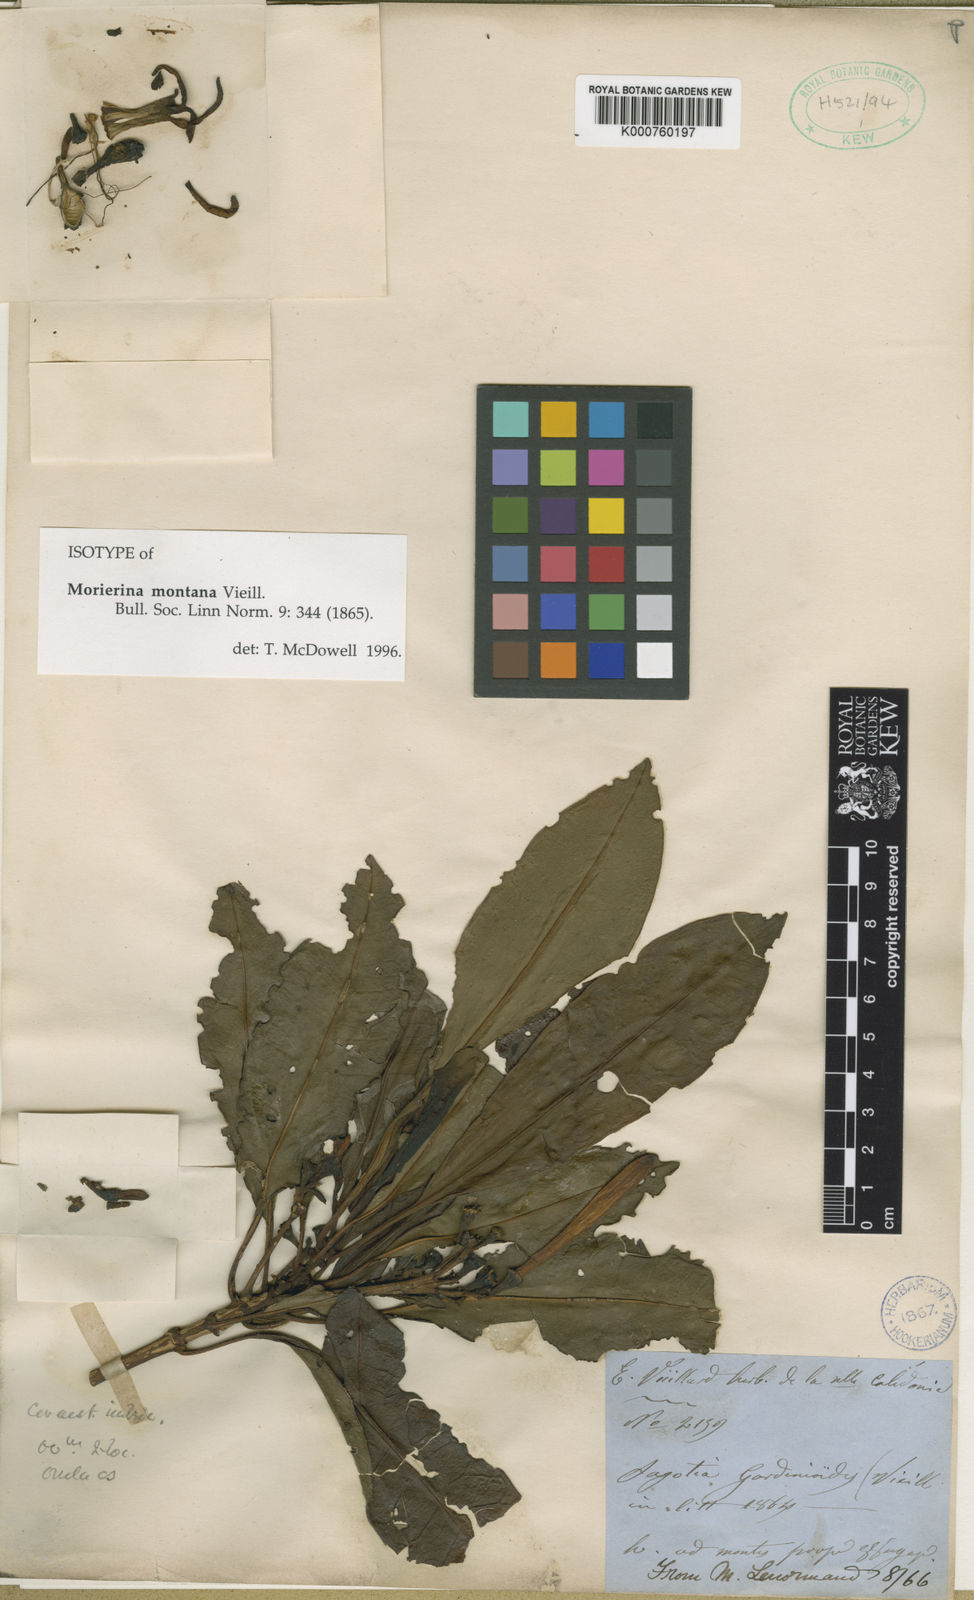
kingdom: Plantae
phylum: Tracheophyta
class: Magnoliopsida
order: Gentianales
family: Rubiaceae
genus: Thiollierea
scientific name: Thiollierea montana
